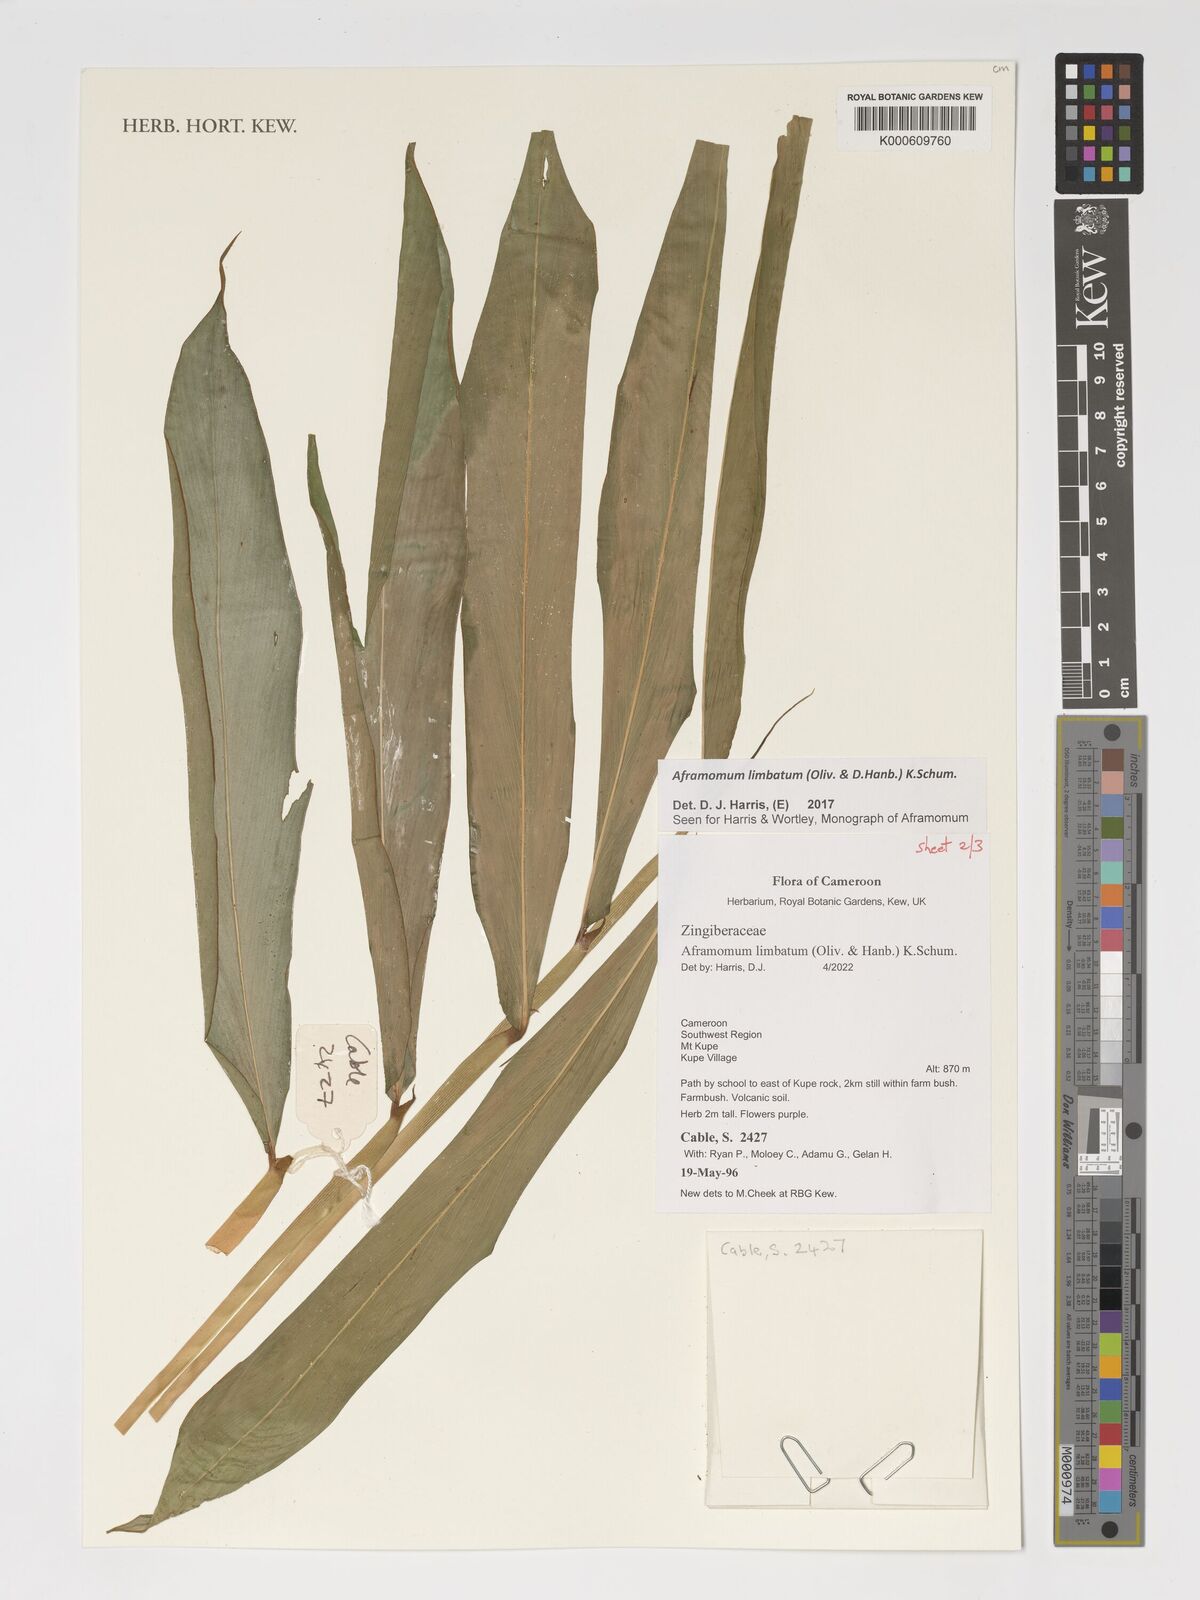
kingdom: Plantae
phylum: Tracheophyta
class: Liliopsida
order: Zingiberales
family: Zingiberaceae
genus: Aframomum
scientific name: Aframomum limbatum
